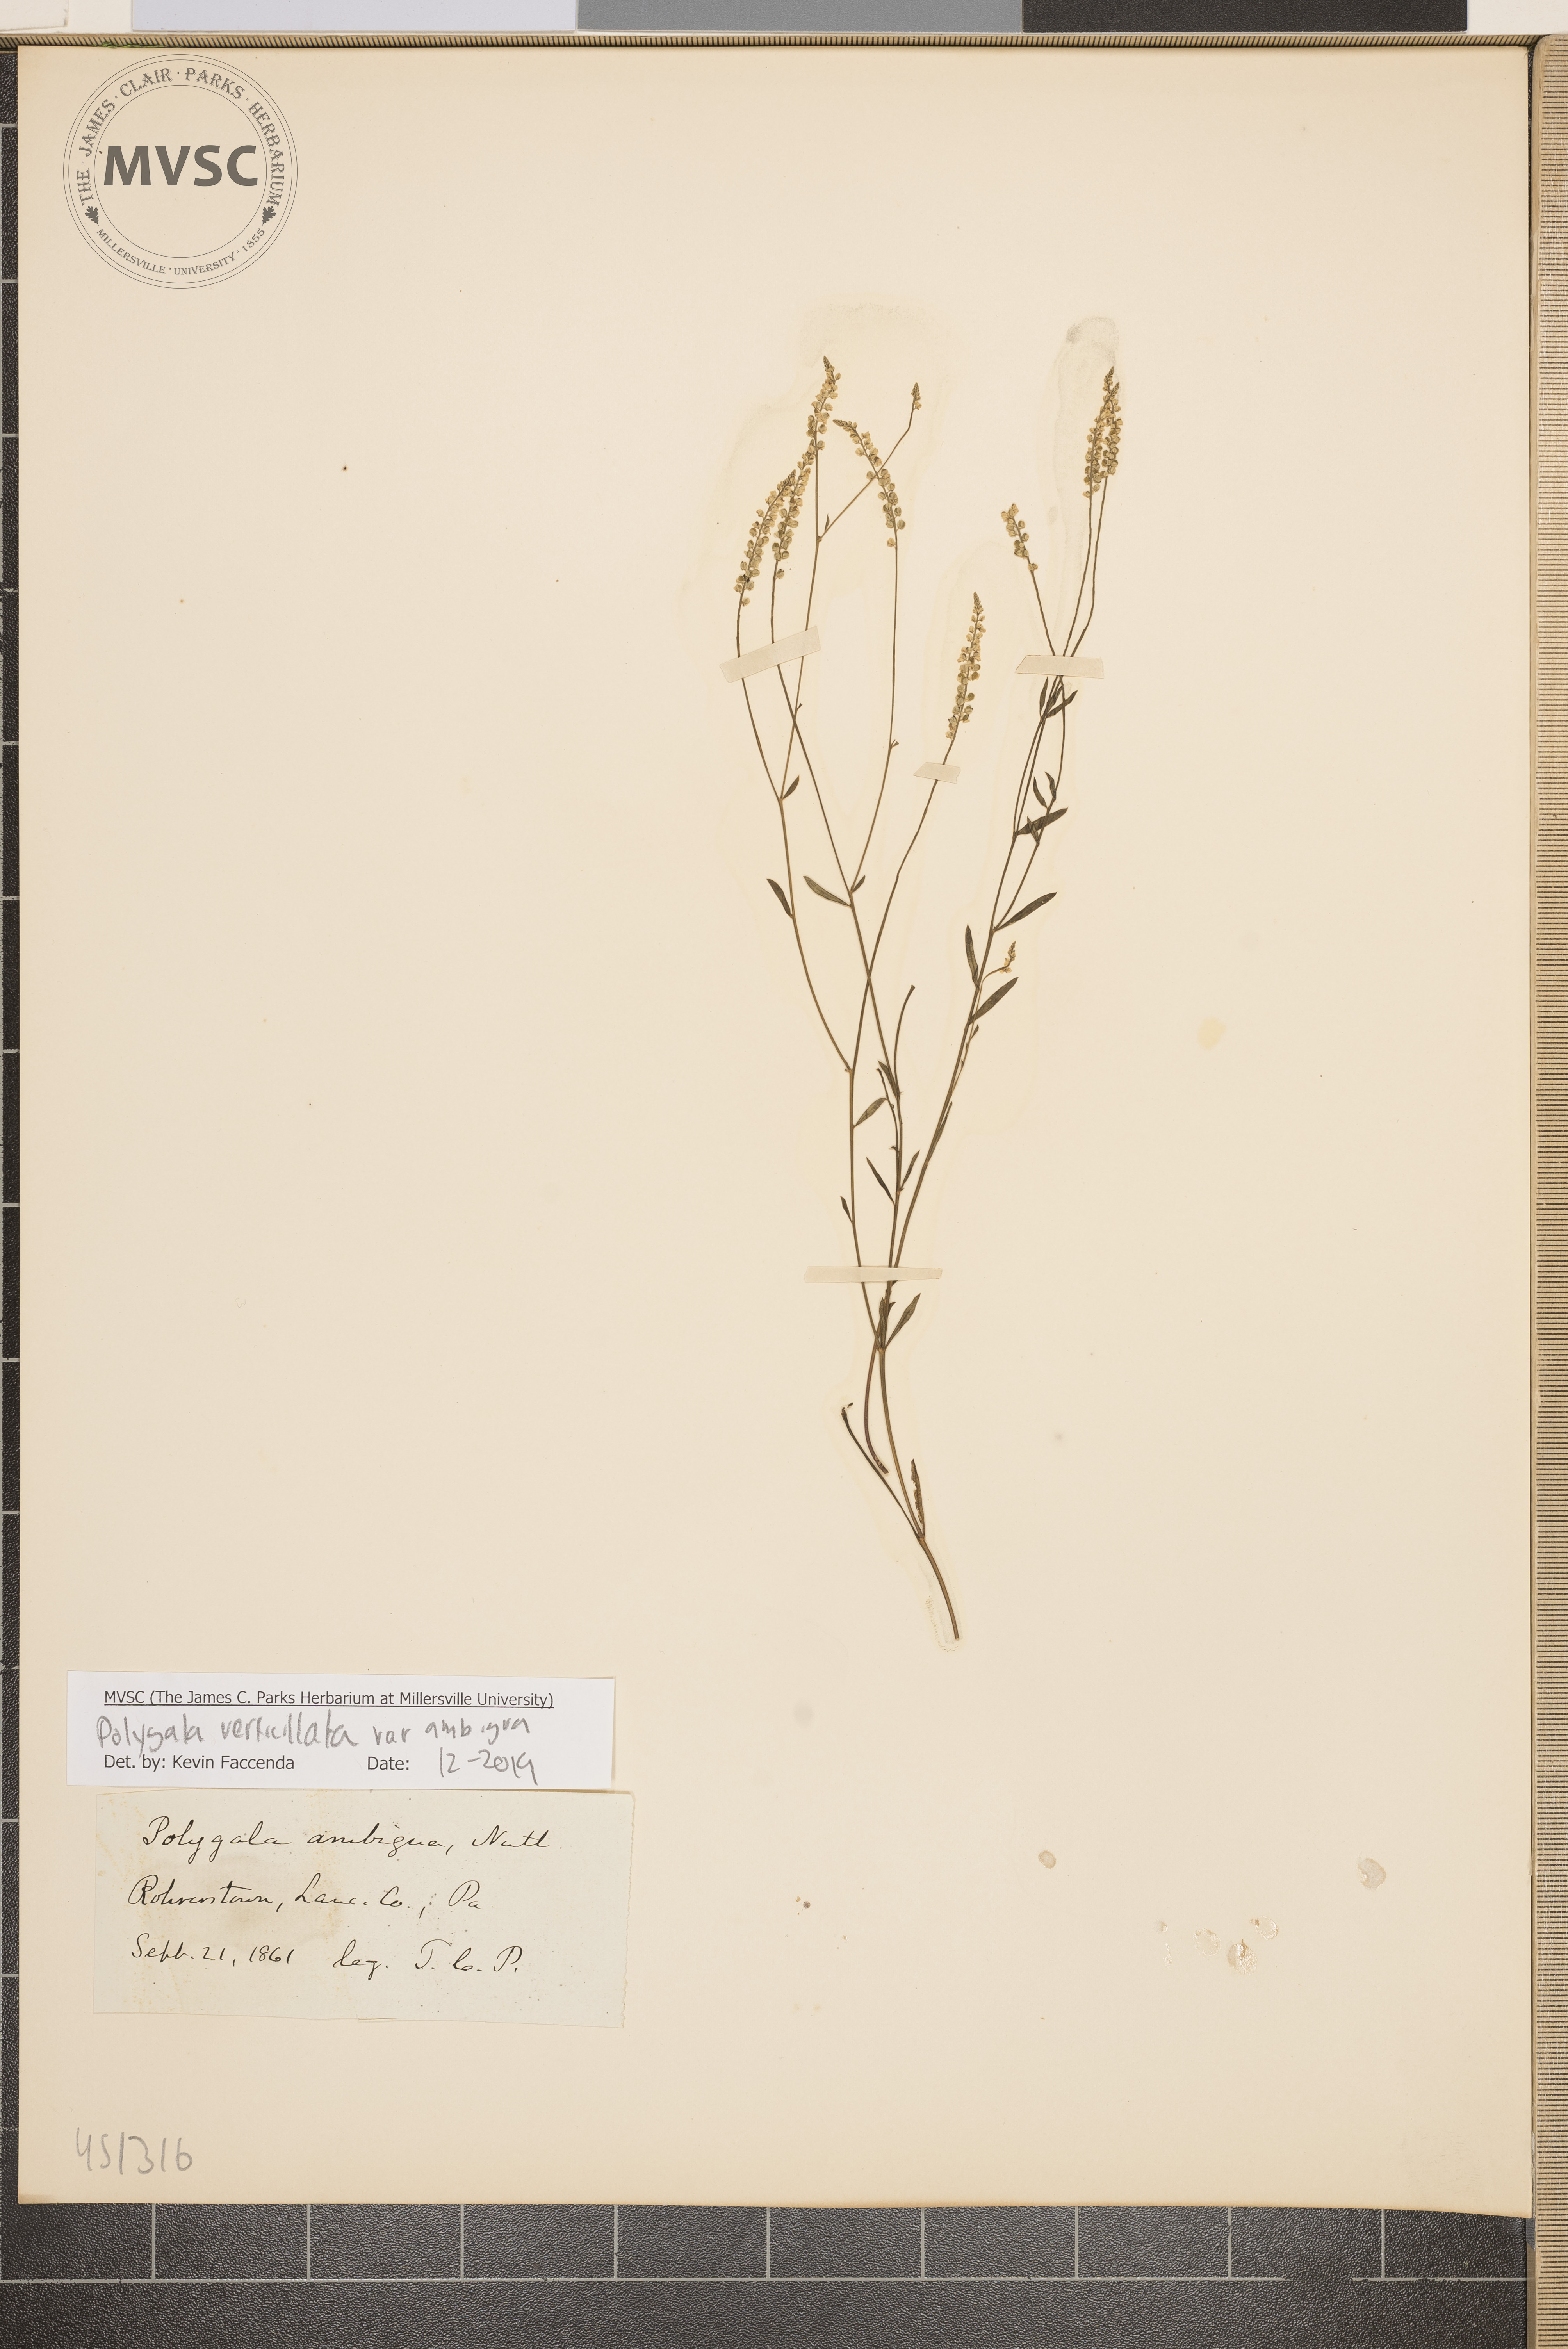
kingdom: Plantae
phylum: Tracheophyta
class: Magnoliopsida
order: Fabales
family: Polygalaceae
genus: Polygala
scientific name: Polygala verticillata
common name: Whorl milkwort
